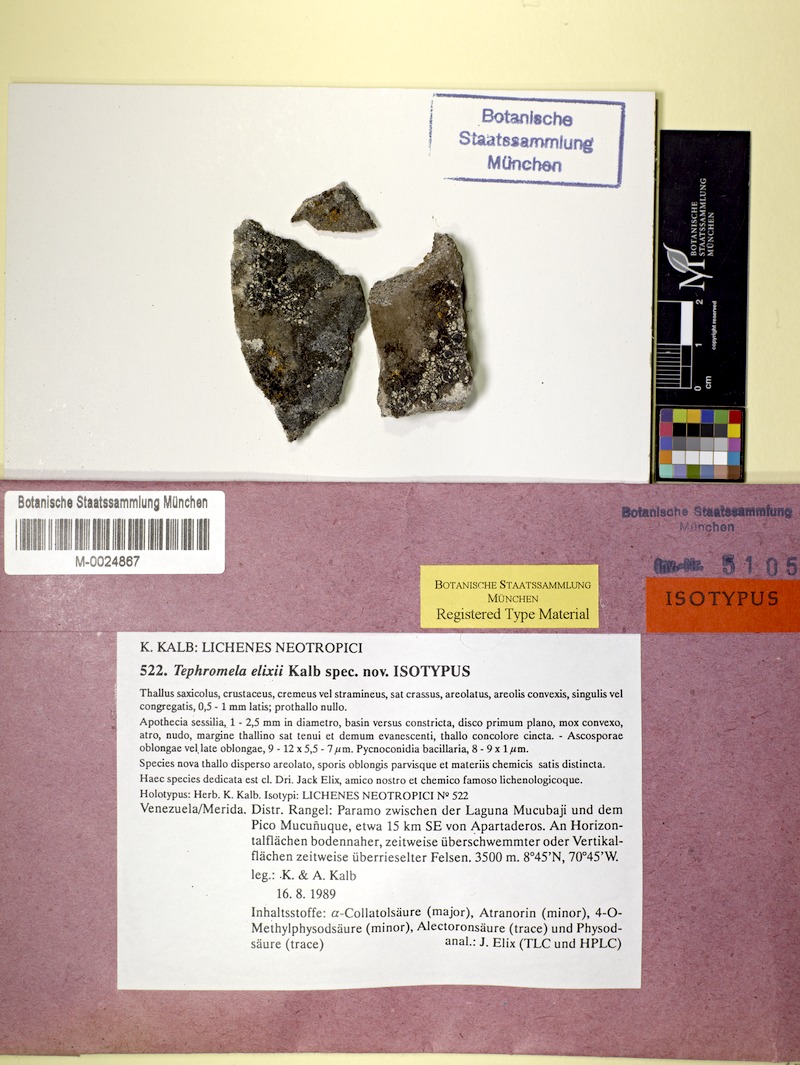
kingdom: Fungi
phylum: Ascomycota
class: Lecanoromycetes
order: Lecanorales
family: Tephromelataceae
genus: Tephromela
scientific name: Tephromela elixii
